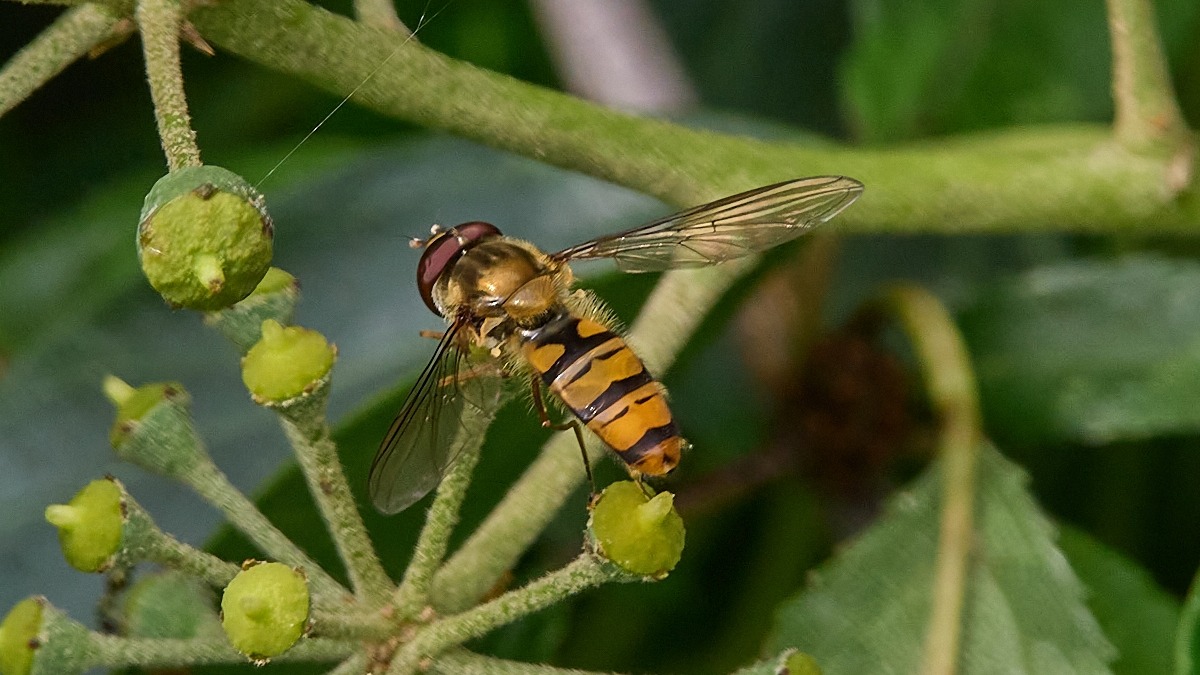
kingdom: Animalia
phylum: Arthropoda
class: Insecta
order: Diptera
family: Syrphidae
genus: Episyrphus
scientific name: Episyrphus balteatus
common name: Dobbeltbåndet svirreflue
